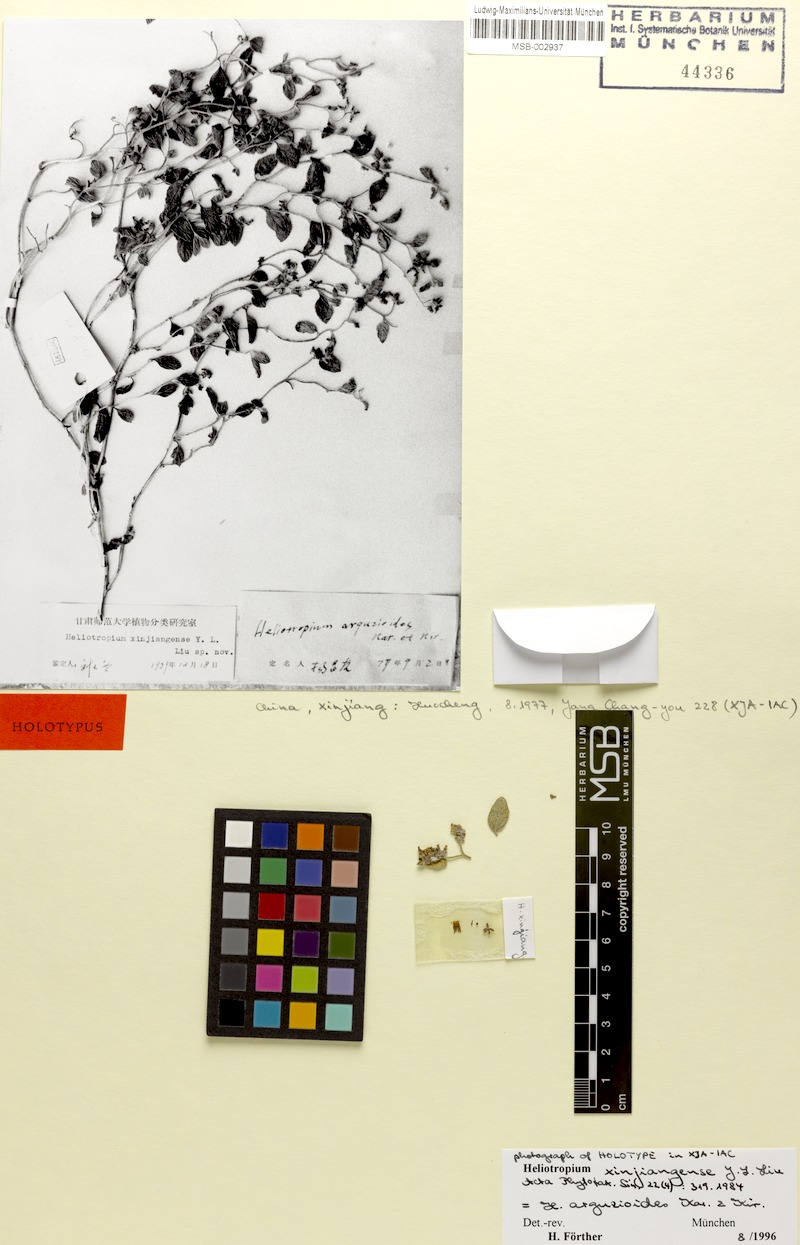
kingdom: Plantae
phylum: Tracheophyta
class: Magnoliopsida
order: Boraginales
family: Heliotropiaceae
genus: Heliotropium
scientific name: Heliotropium arguzioides
